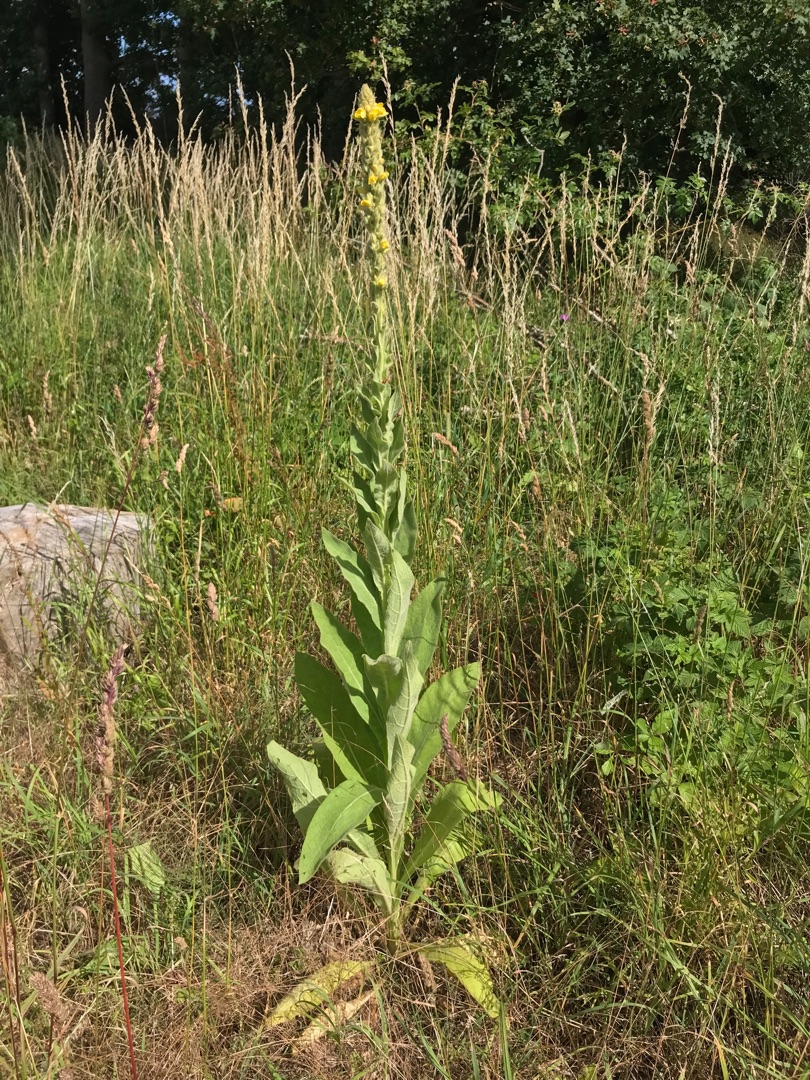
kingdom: Plantae
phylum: Tracheophyta
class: Magnoliopsida
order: Lamiales
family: Scrophulariaceae
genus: Verbascum
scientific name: Verbascum thapsus
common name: Filtbladet kongelys
